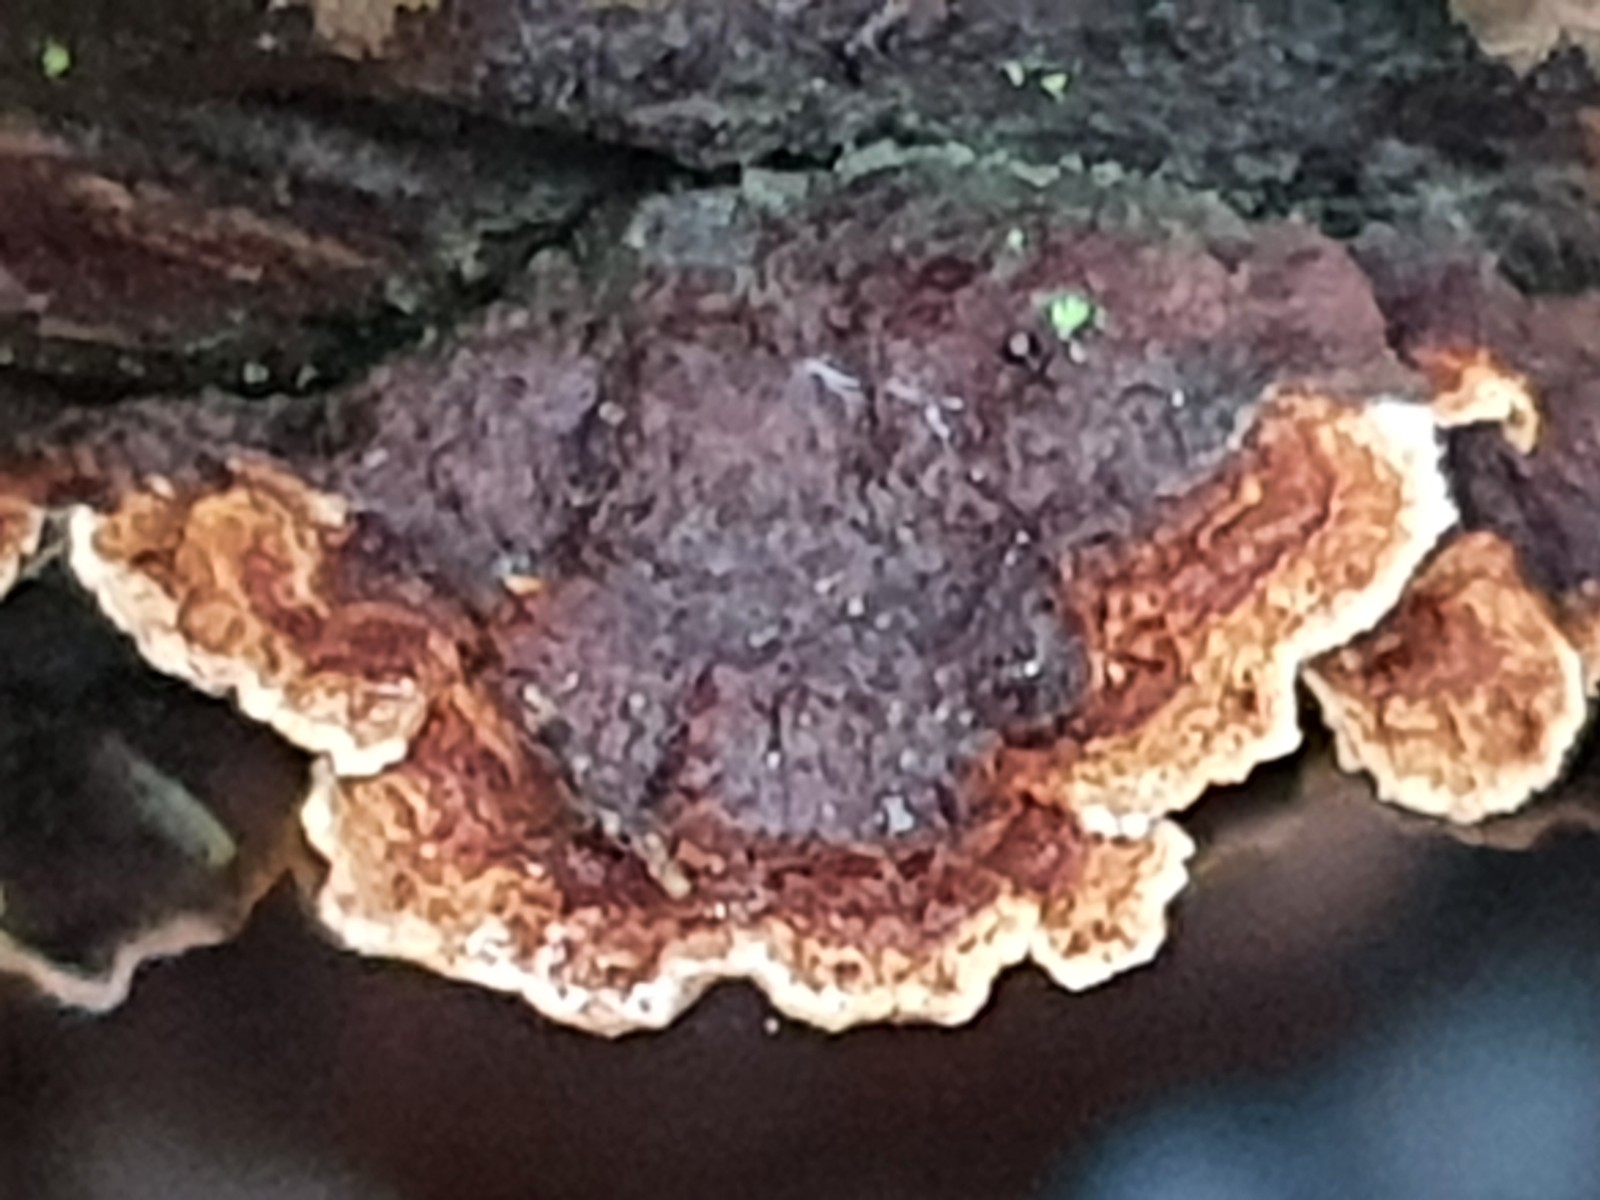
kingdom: Fungi
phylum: Basidiomycota
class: Agaricomycetes
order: Hymenochaetales
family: Hymenochaetaceae
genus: Hydnoporia
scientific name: Hydnoporia tabacina
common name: tobaksbrun ruslædersvamp
